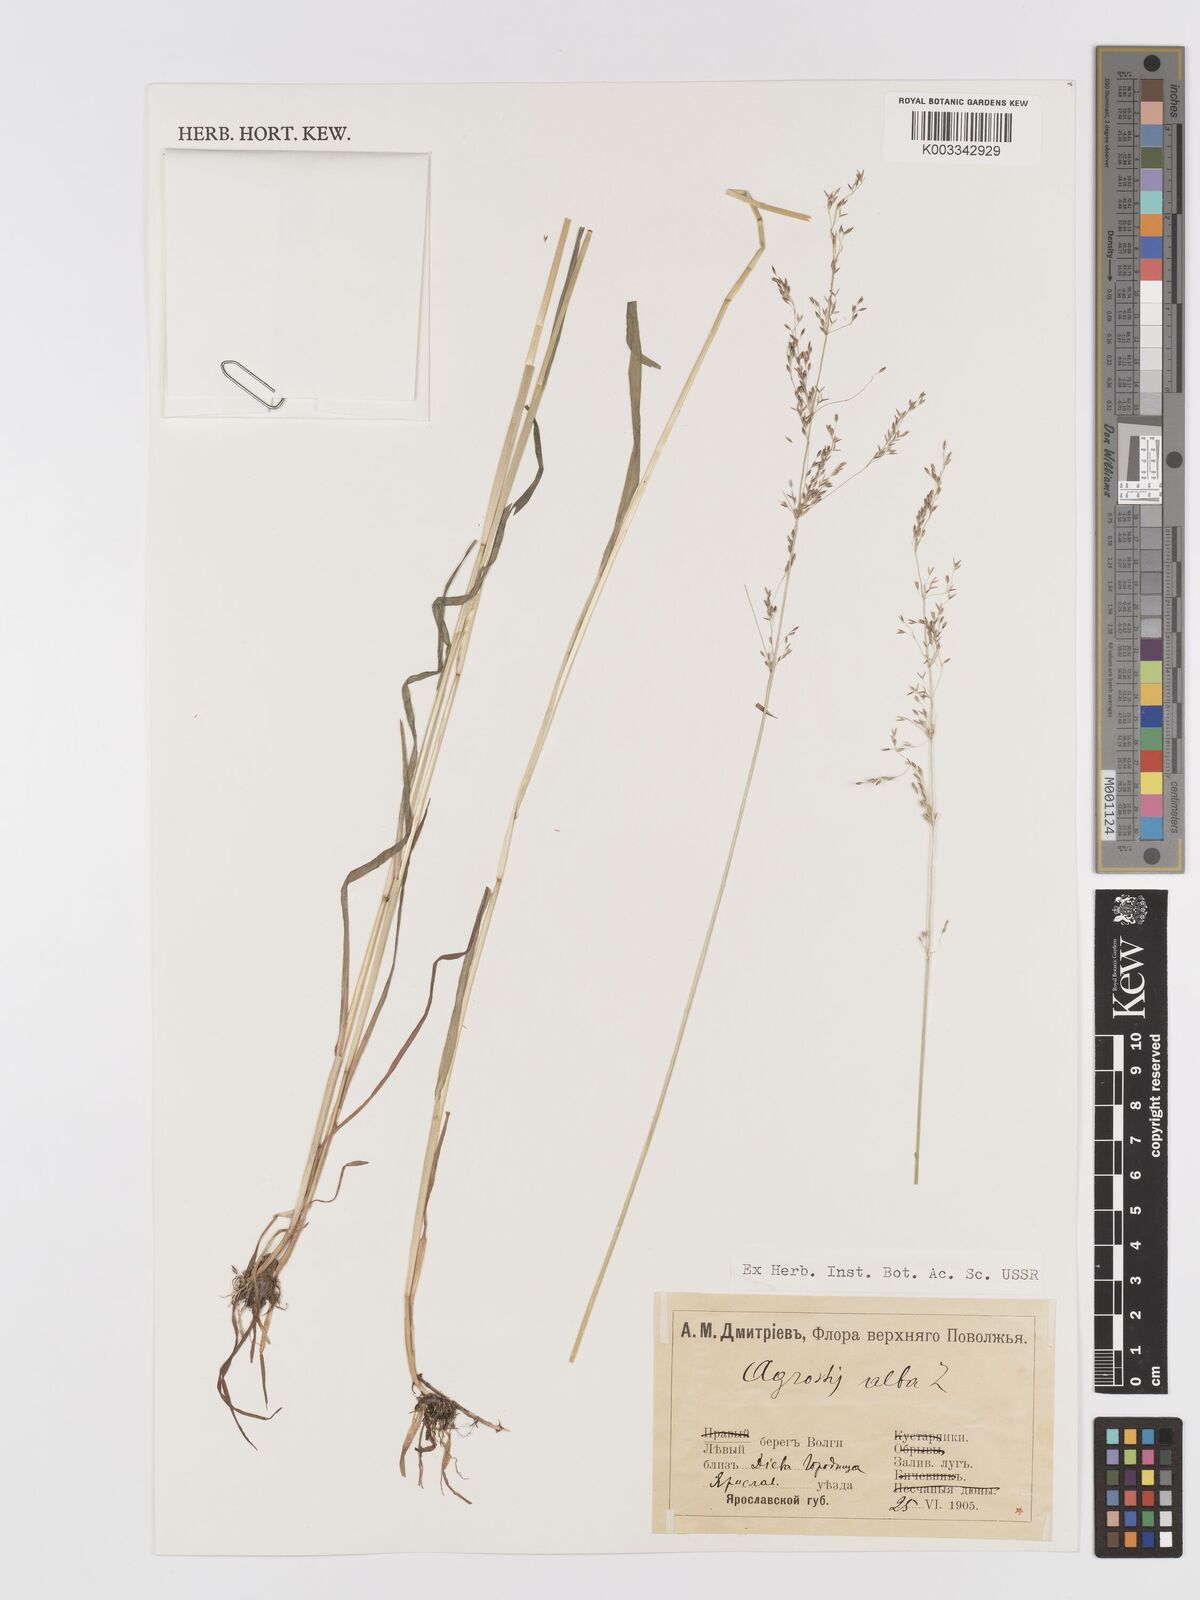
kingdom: Plantae
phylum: Tracheophyta
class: Liliopsida
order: Poales
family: Poaceae
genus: Agrostis
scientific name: Agrostis gigantea
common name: Black bent
